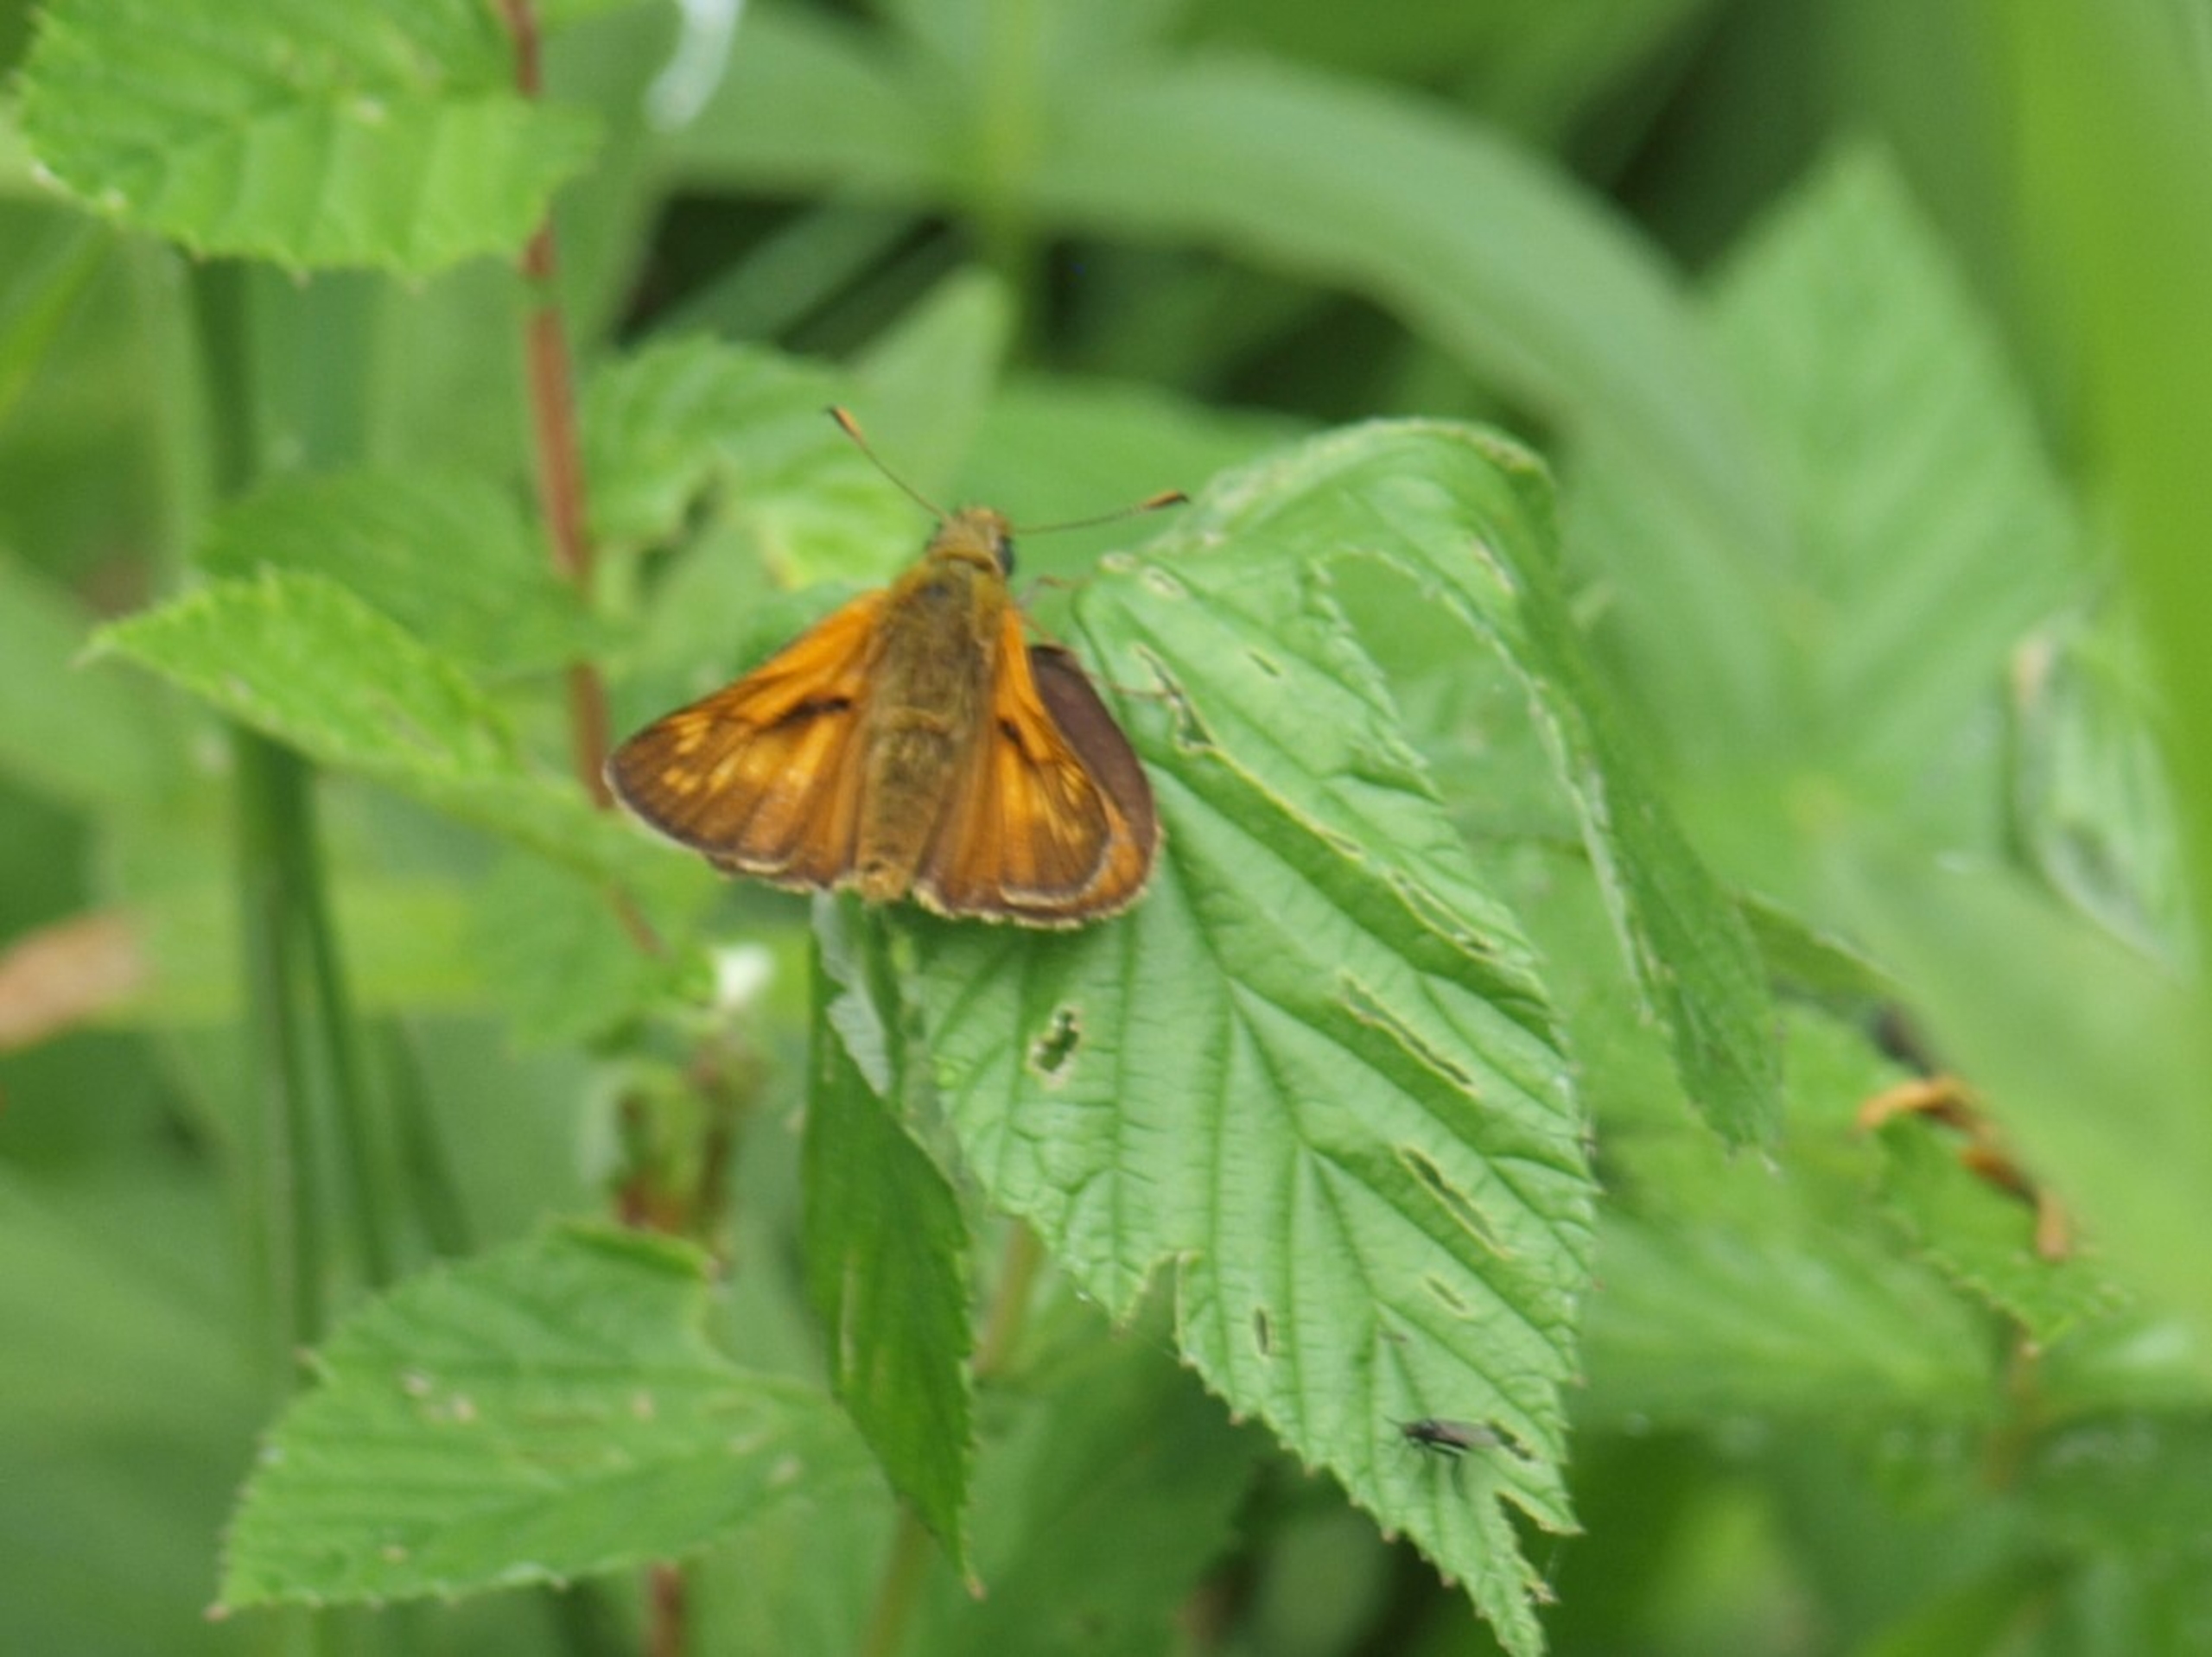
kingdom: Animalia
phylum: Arthropoda
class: Insecta
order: Lepidoptera
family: Hesperiidae
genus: Ochlodes
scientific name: Ochlodes venata
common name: Stor bredpande
